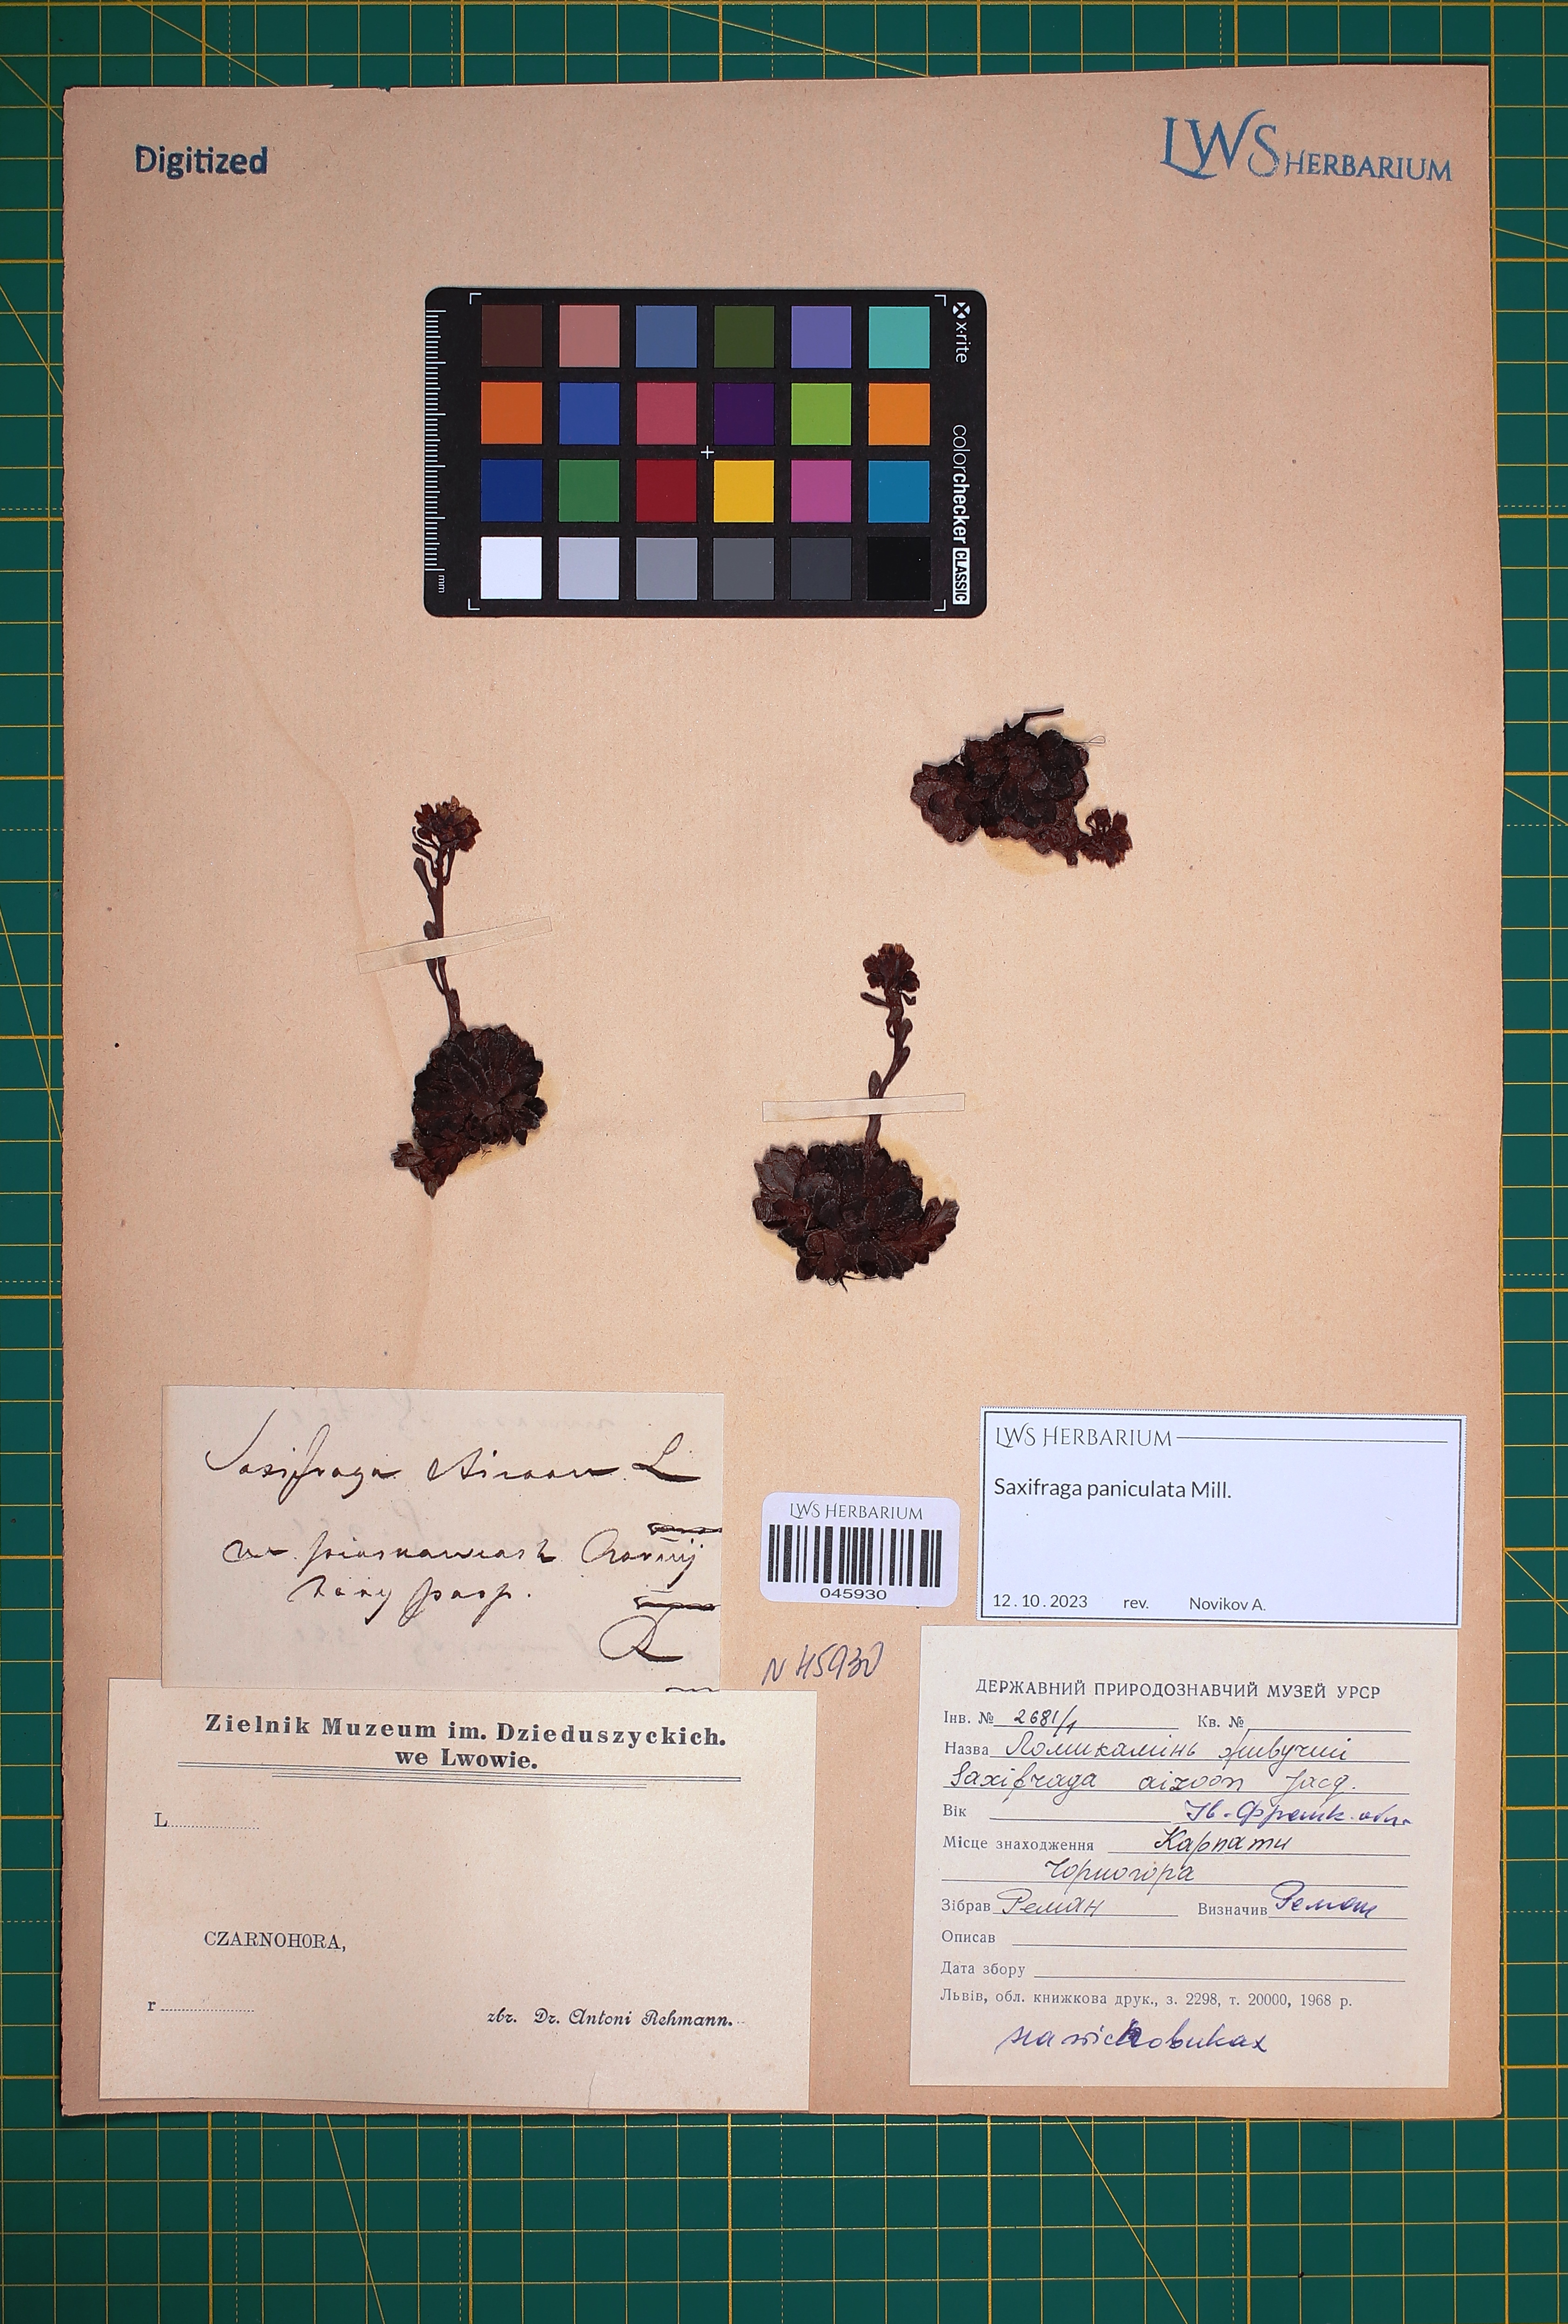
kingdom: Plantae
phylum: Tracheophyta
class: Magnoliopsida
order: Saxifragales
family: Saxifragaceae
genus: Saxifraga
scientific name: Saxifraga paniculata
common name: Livelong saxifrage
